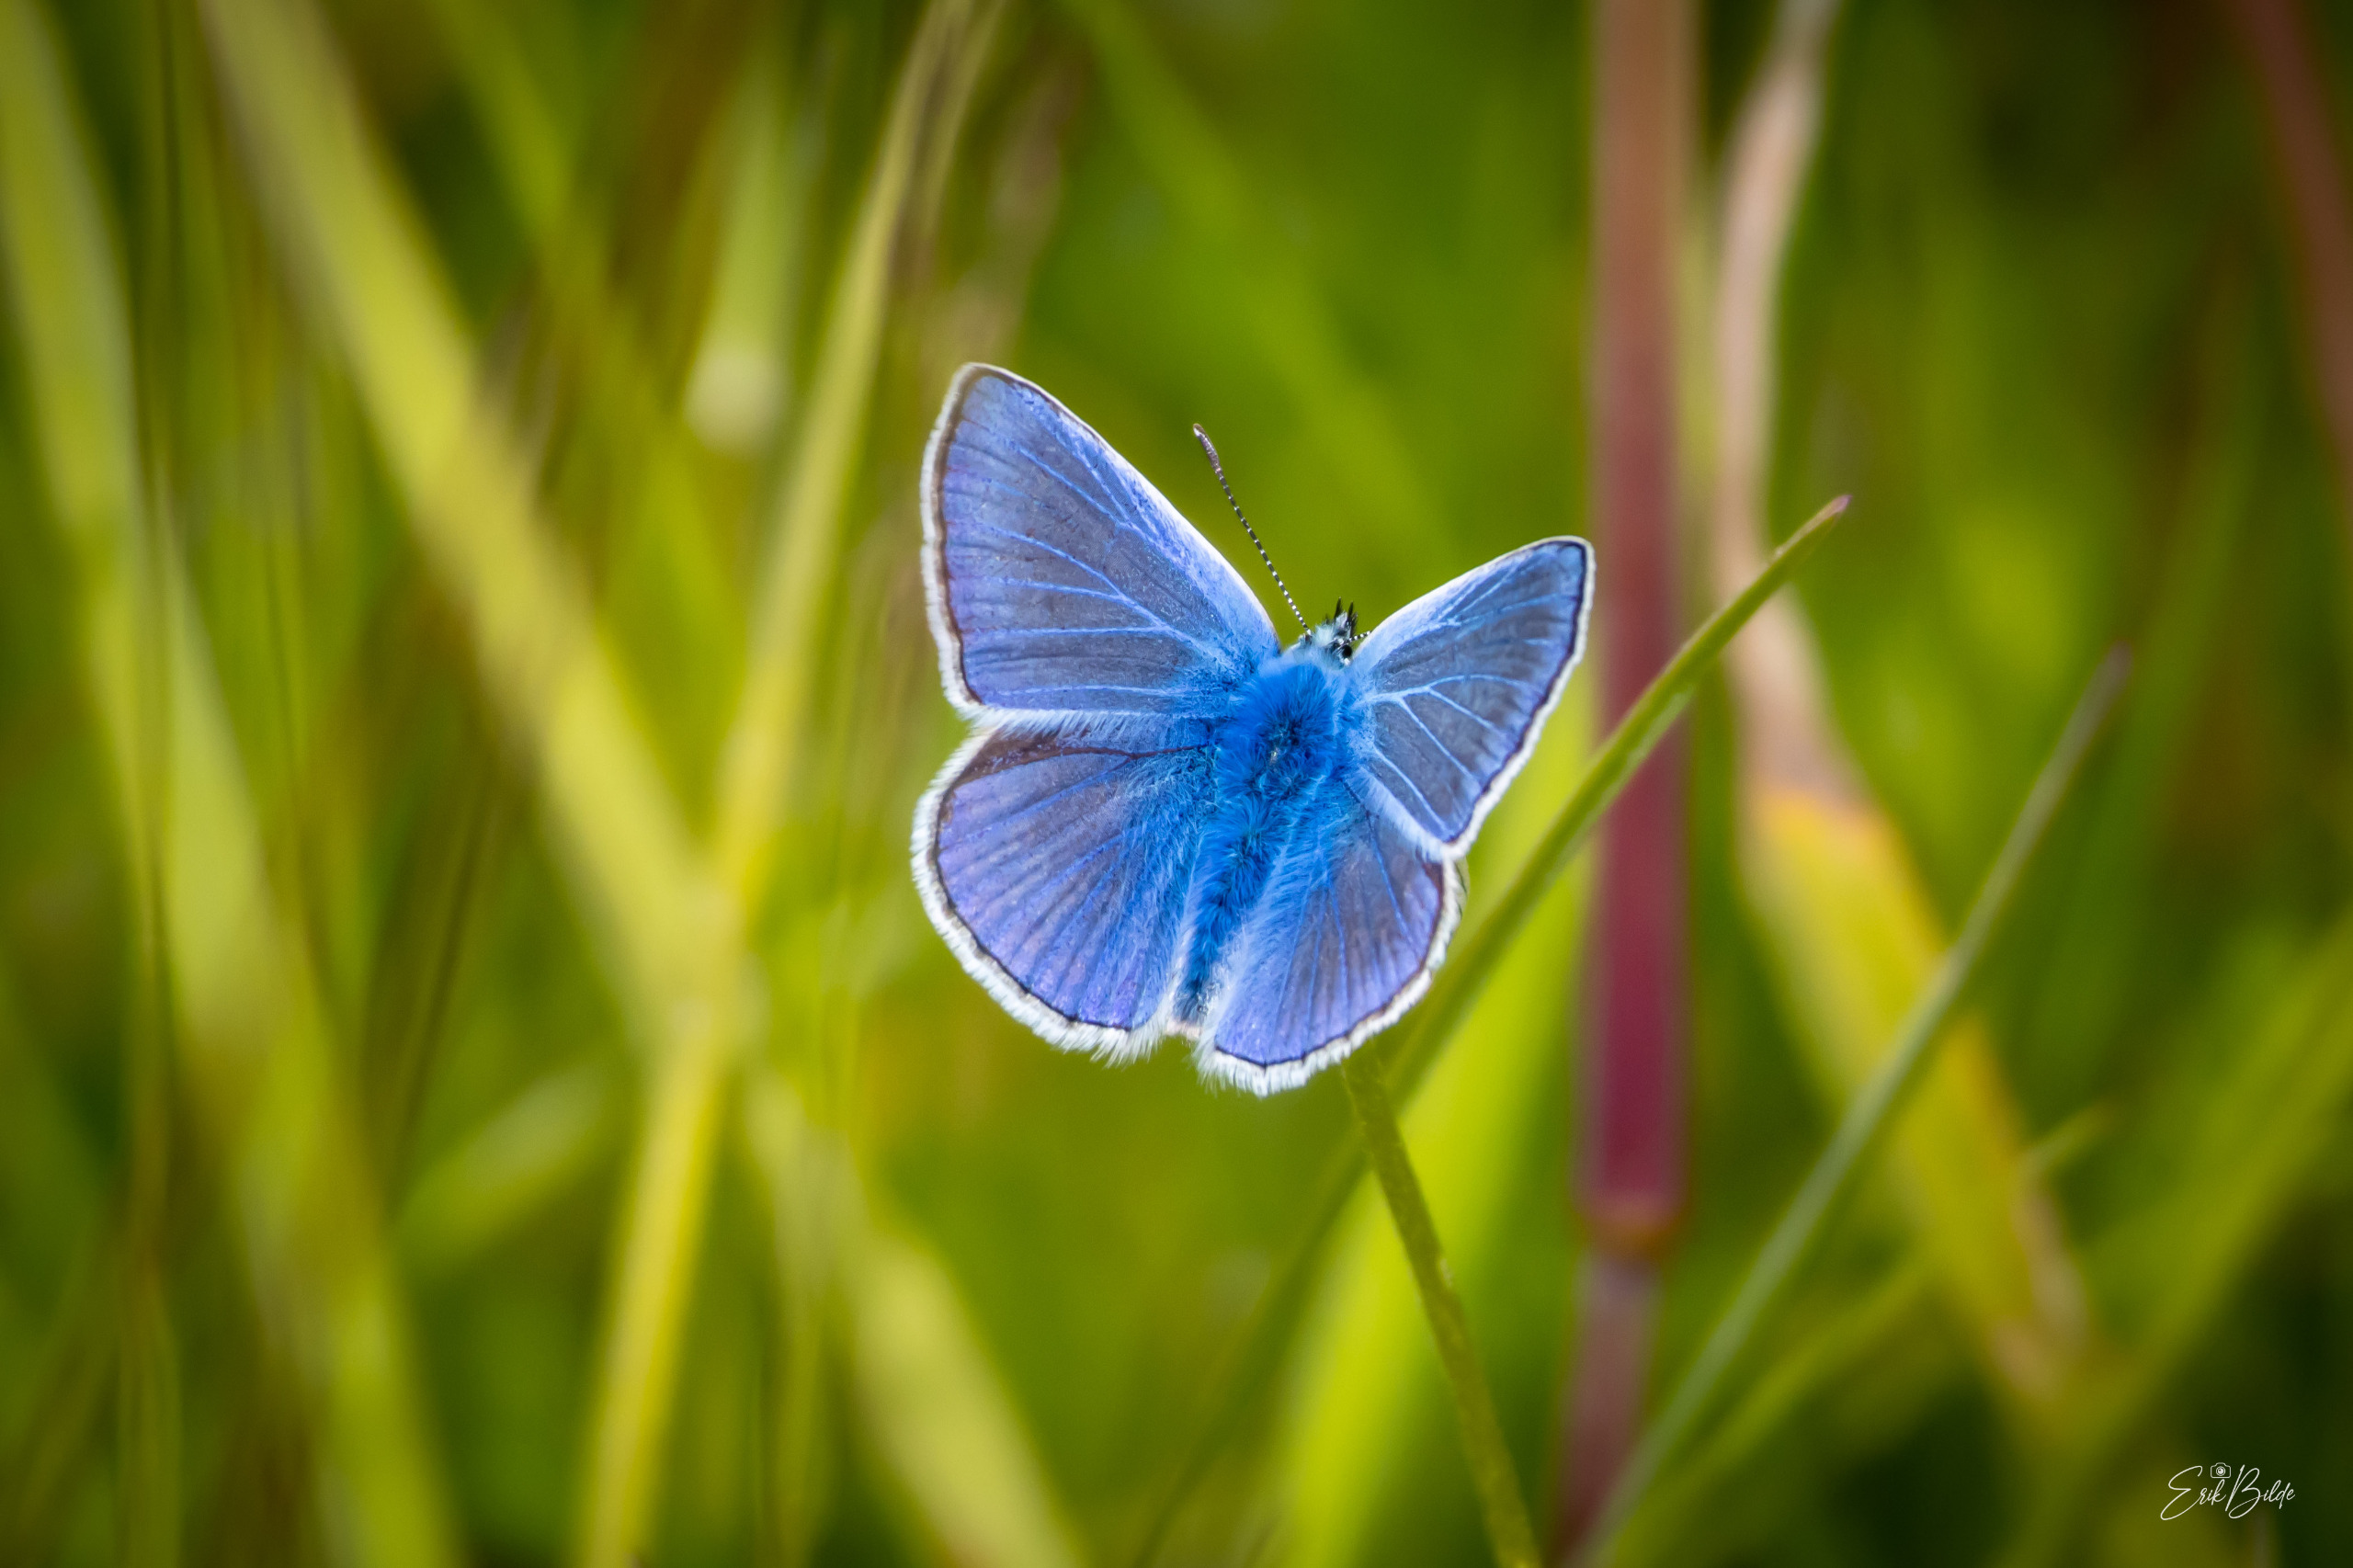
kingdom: Animalia
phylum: Arthropoda
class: Insecta
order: Lepidoptera
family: Lycaenidae
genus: Polyommatus
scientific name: Polyommatus icarus
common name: Almindelig blåfugl
